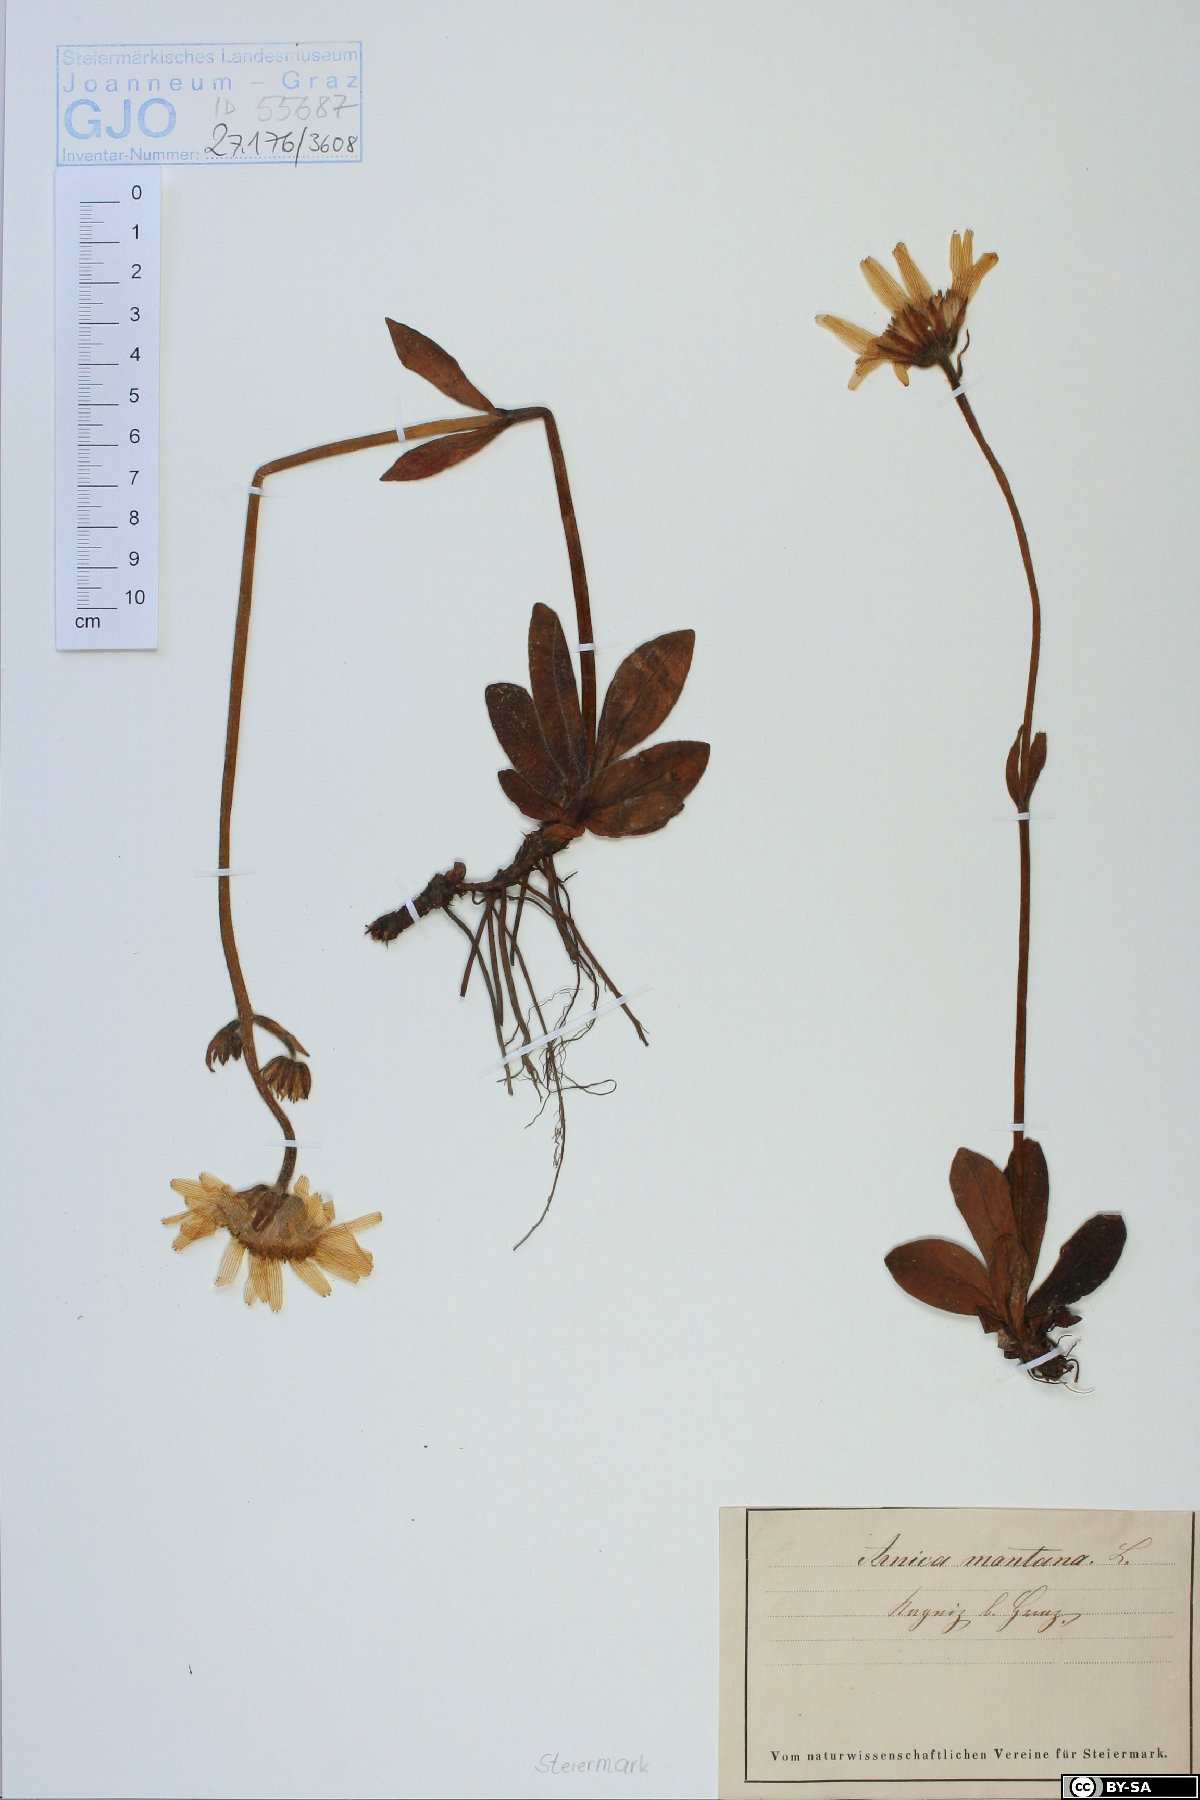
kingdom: Plantae
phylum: Tracheophyta
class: Magnoliopsida
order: Asterales
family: Asteraceae
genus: Arnica
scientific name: Arnica montana
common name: Leopard's bane
